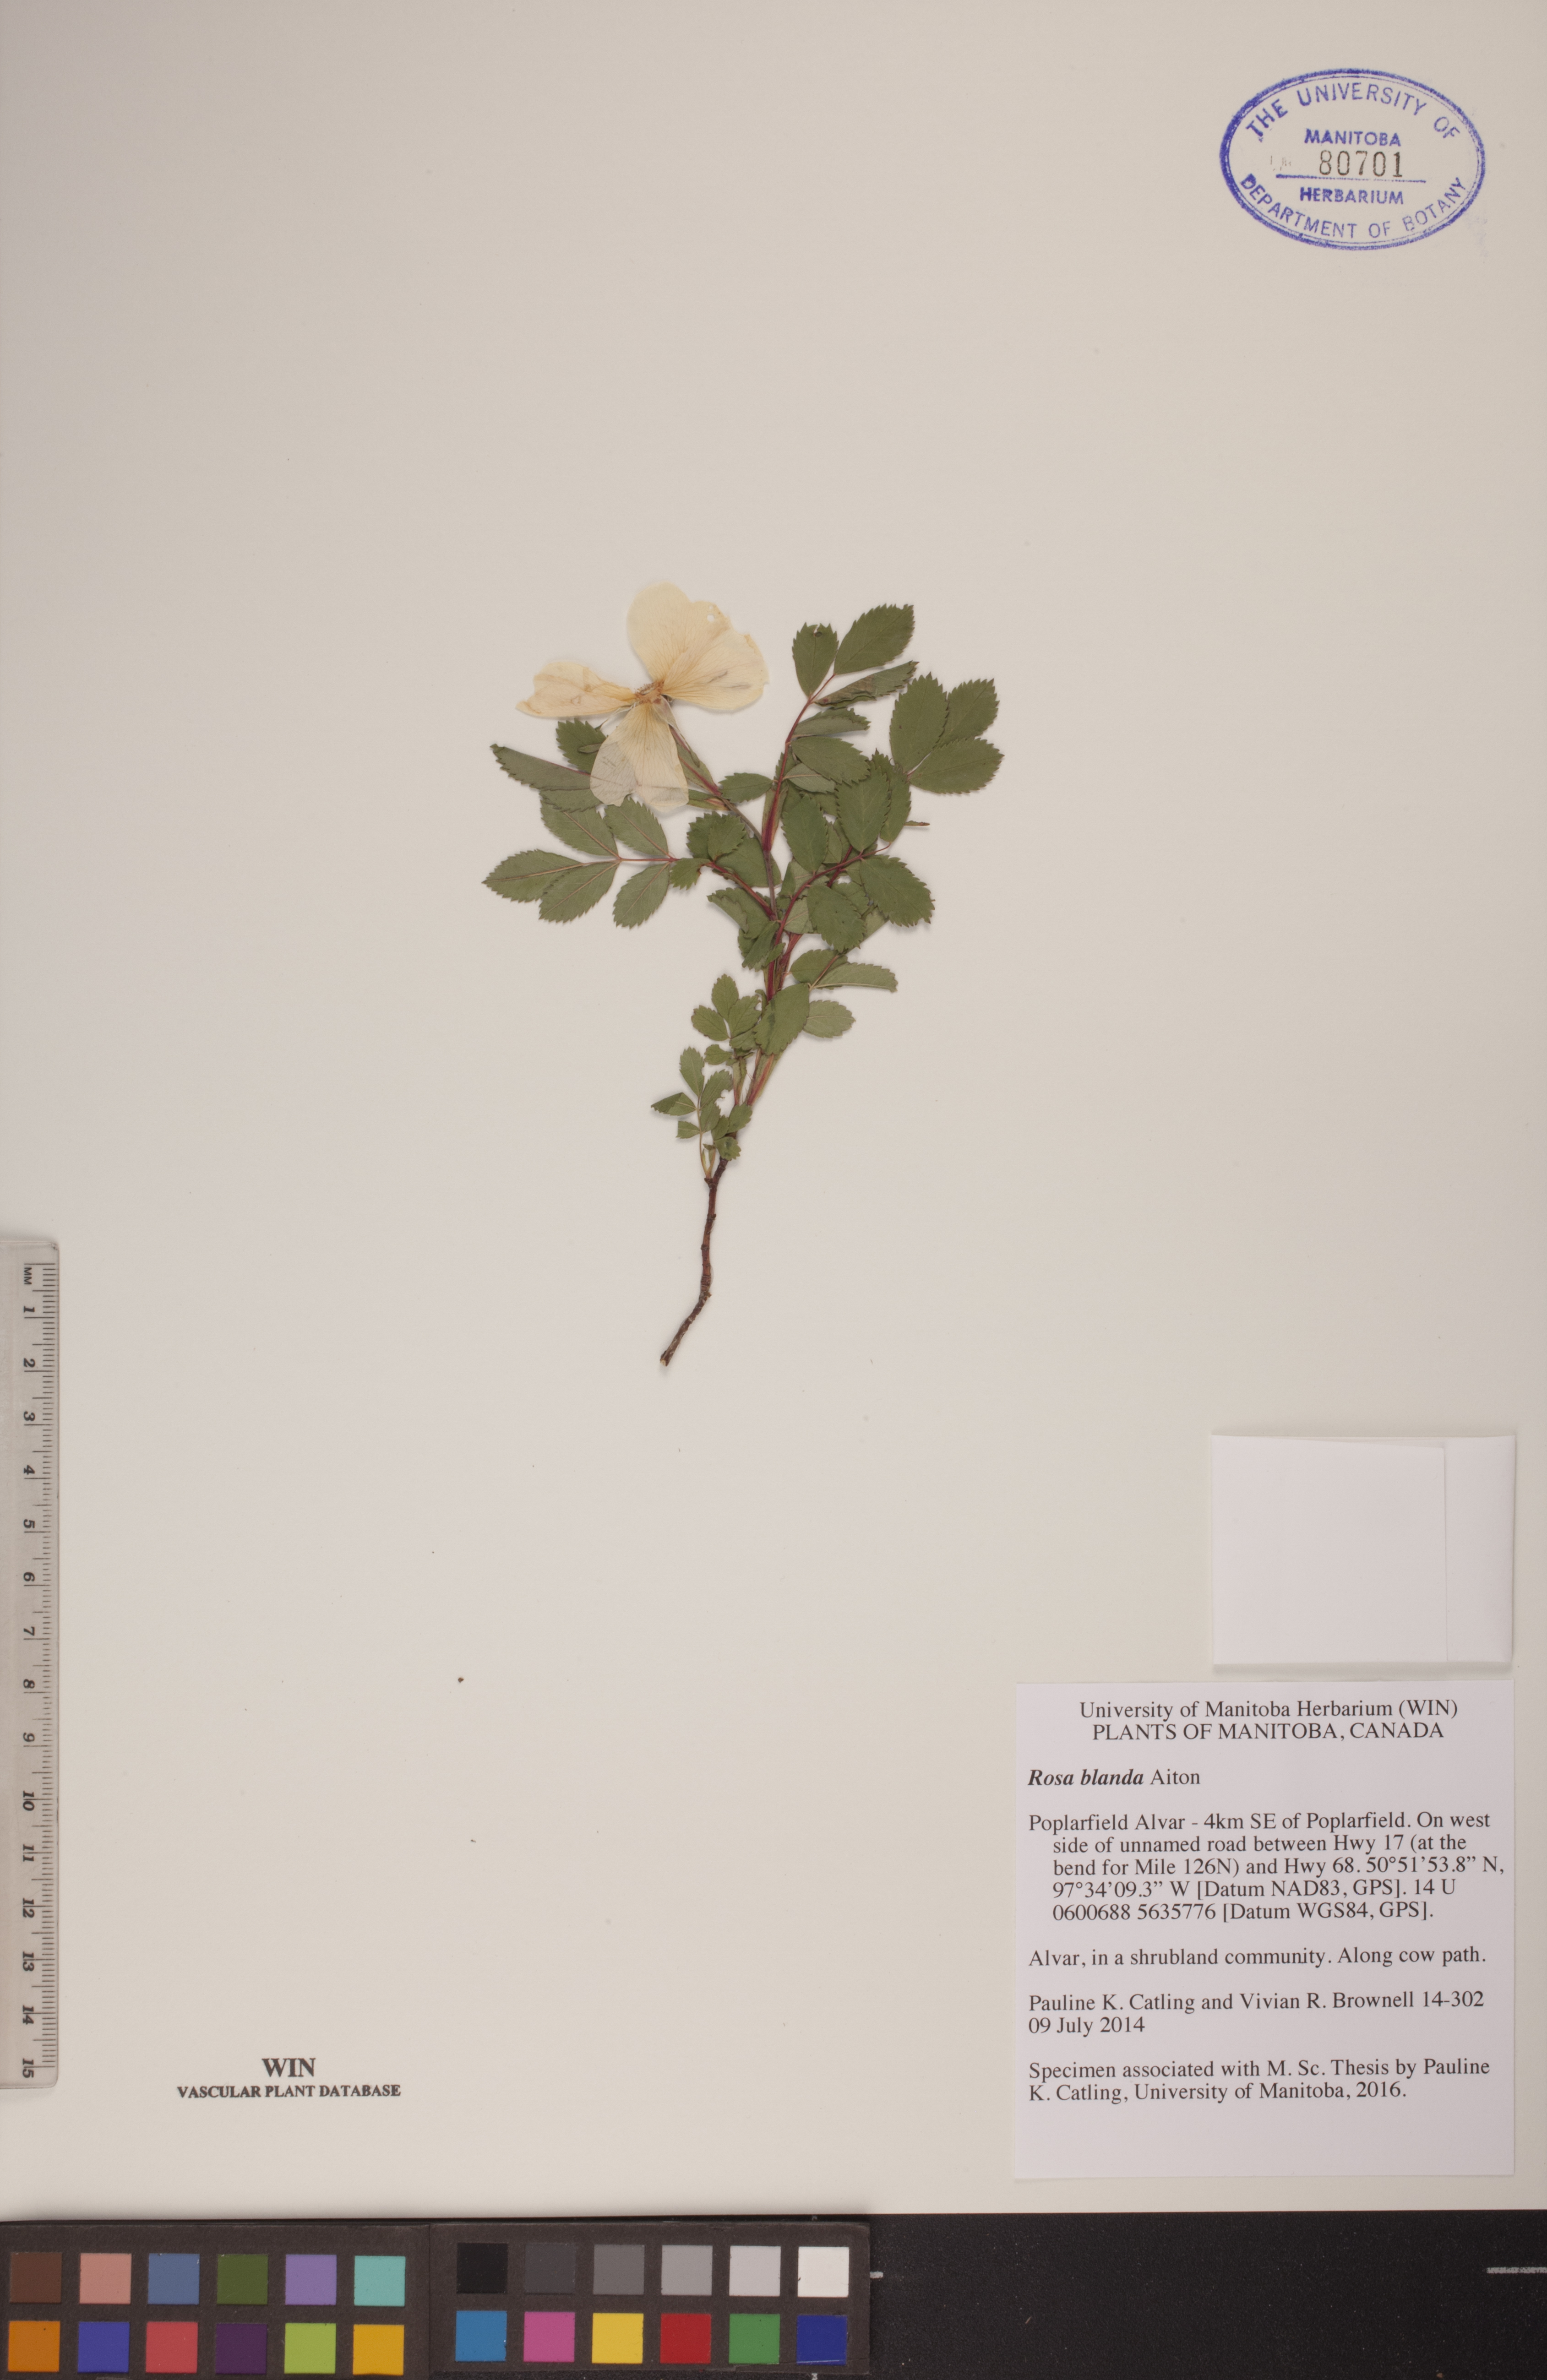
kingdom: Plantae
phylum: Tracheophyta
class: Magnoliopsida
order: Rosales
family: Rosaceae
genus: Rosa
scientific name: Rosa blanda
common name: Smooth rose
